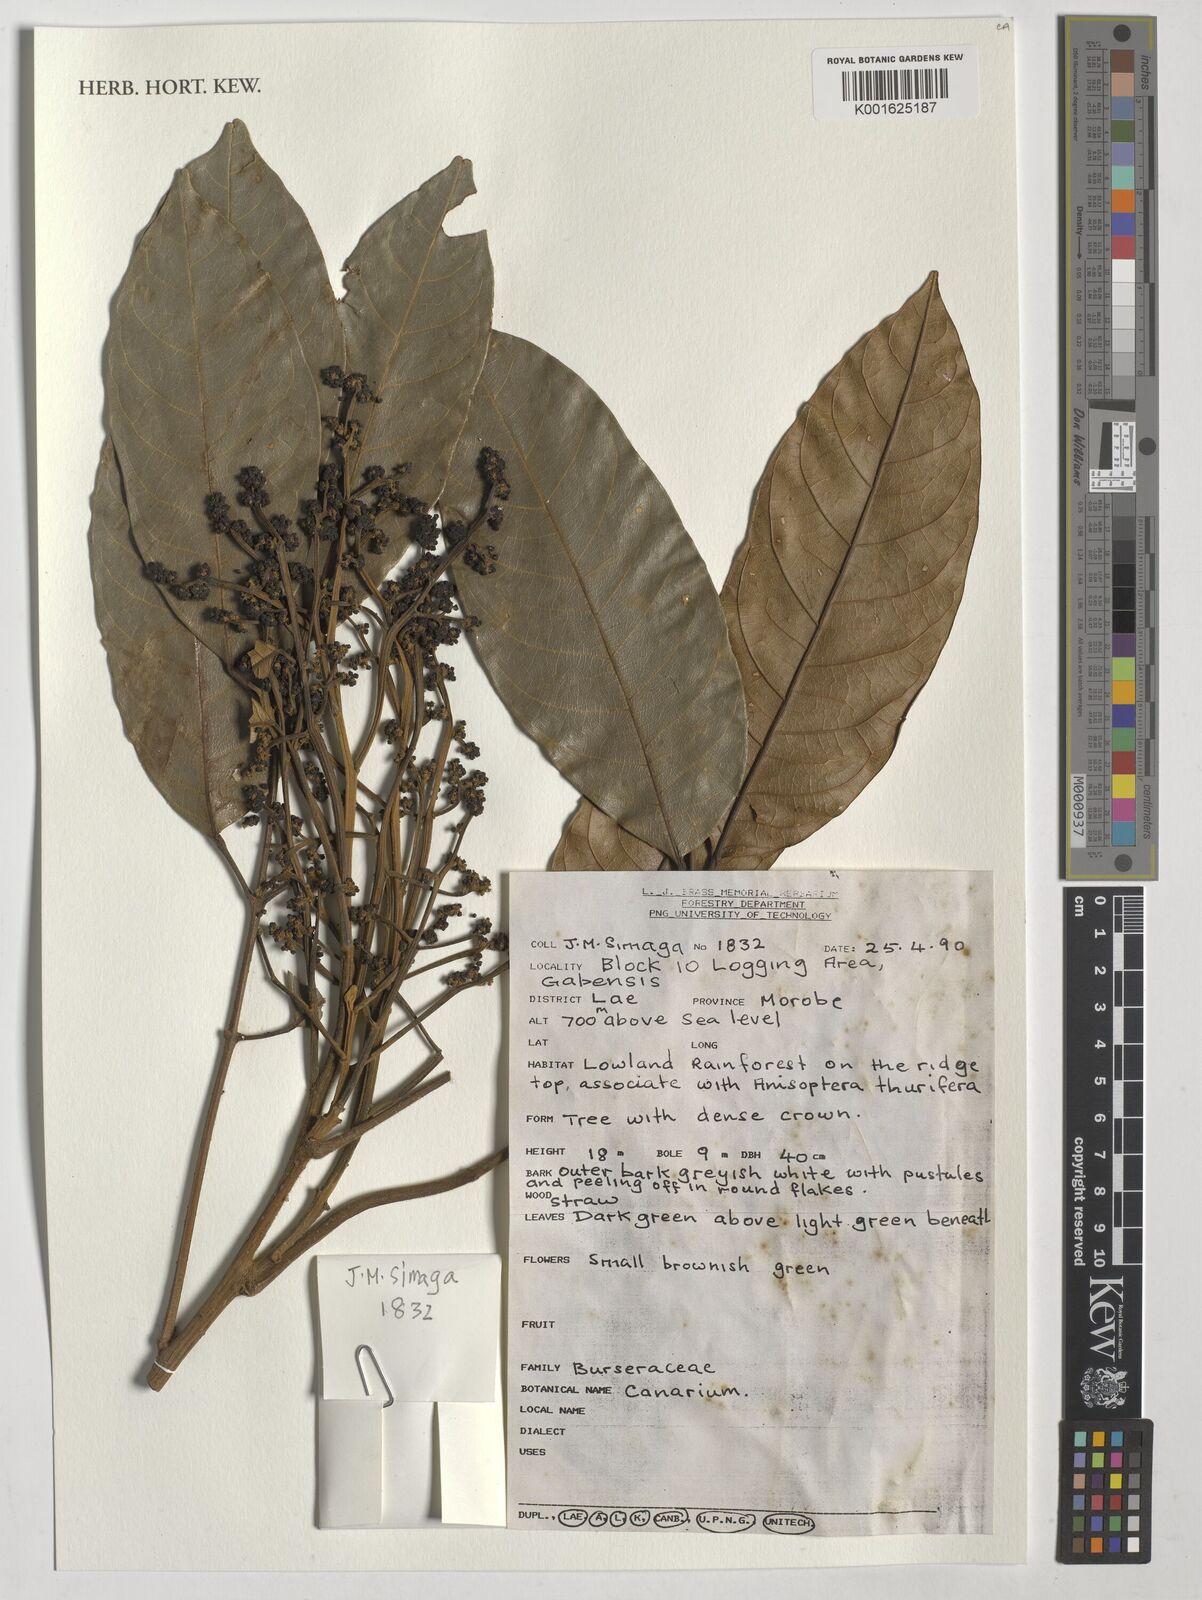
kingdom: Plantae
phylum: Tracheophyta
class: Magnoliopsida
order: Sapindales
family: Burseraceae
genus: Canarium
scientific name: Canarium
